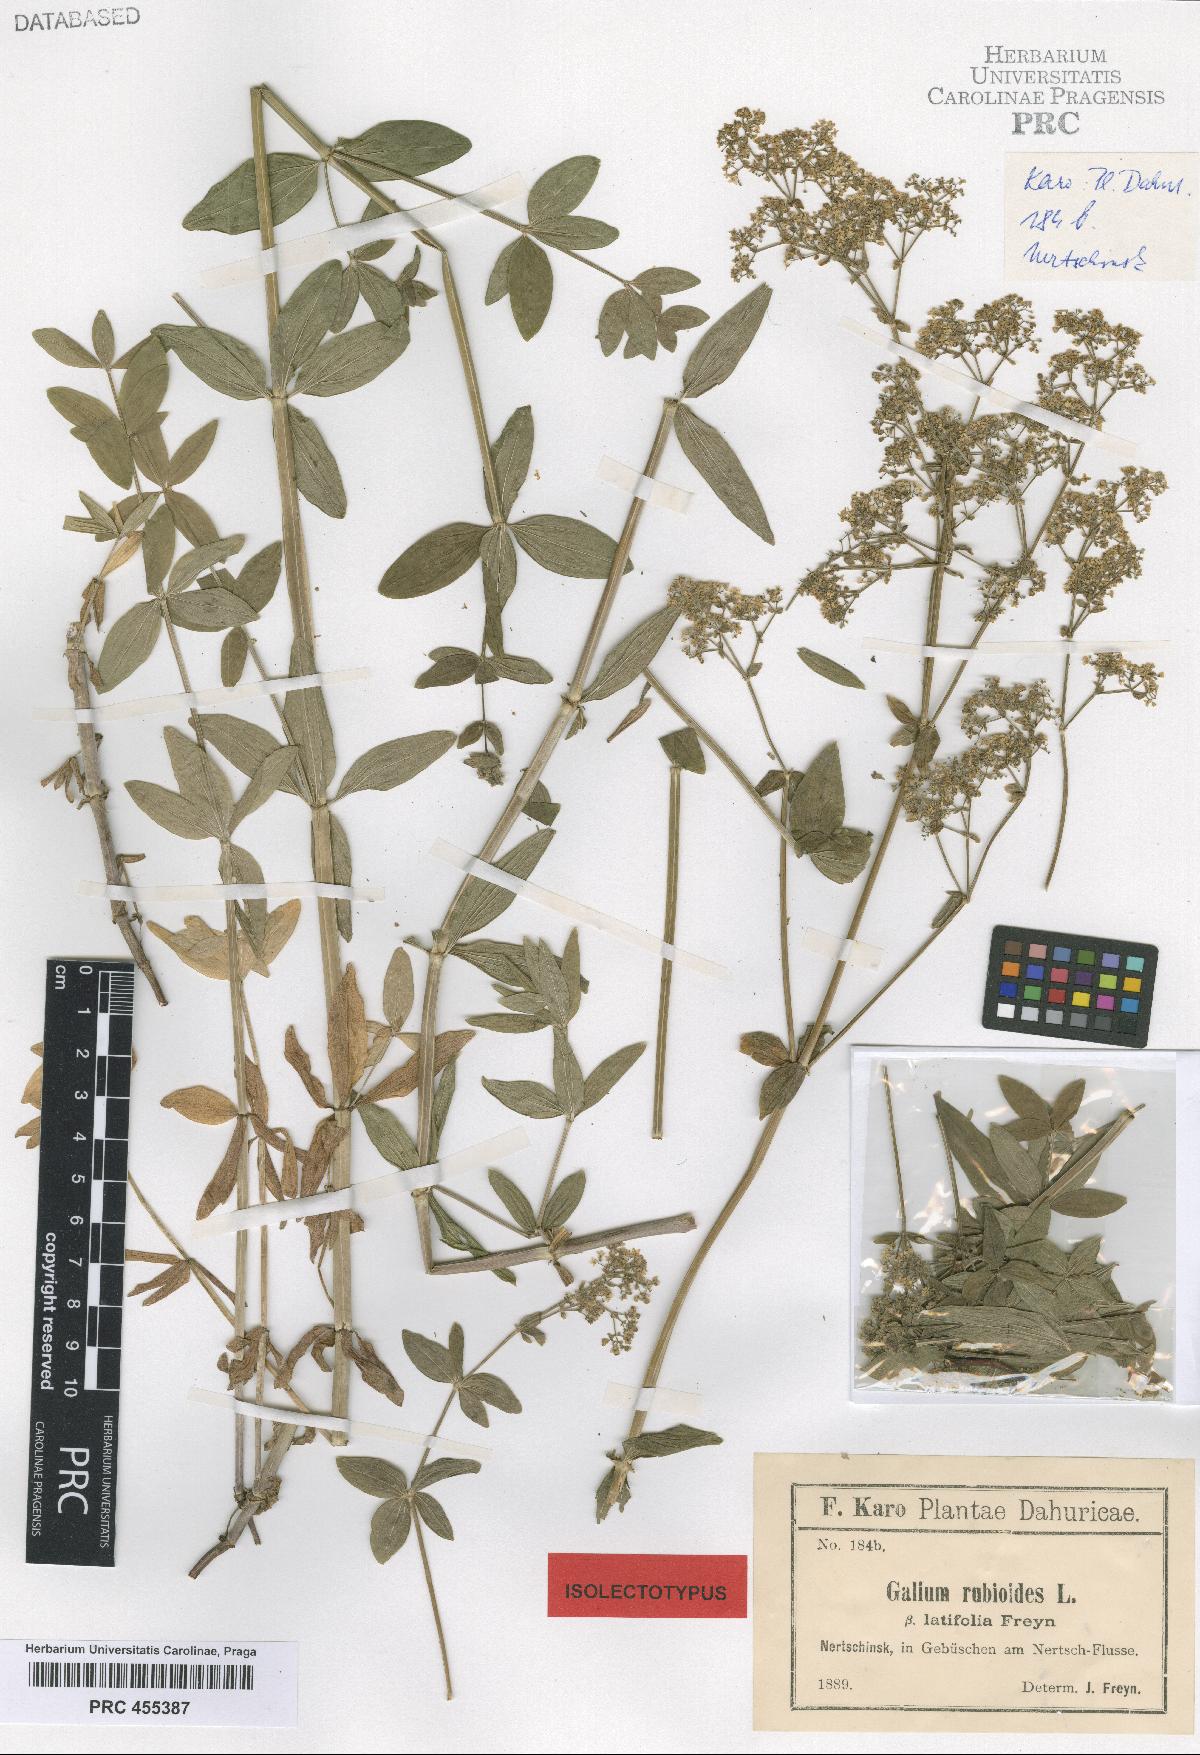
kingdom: Plantae
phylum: Tracheophyta
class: Magnoliopsida
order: Gentianales
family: Rubiaceae
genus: Galium
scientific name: Galium boreale
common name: Northern bedstraw
